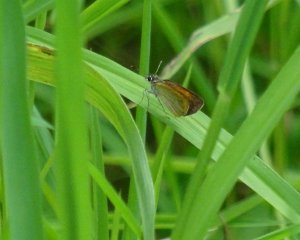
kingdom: Animalia
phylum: Arthropoda
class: Insecta
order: Lepidoptera
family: Hesperiidae
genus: Ancyloxypha
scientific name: Ancyloxypha numitor
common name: Least Skipper
